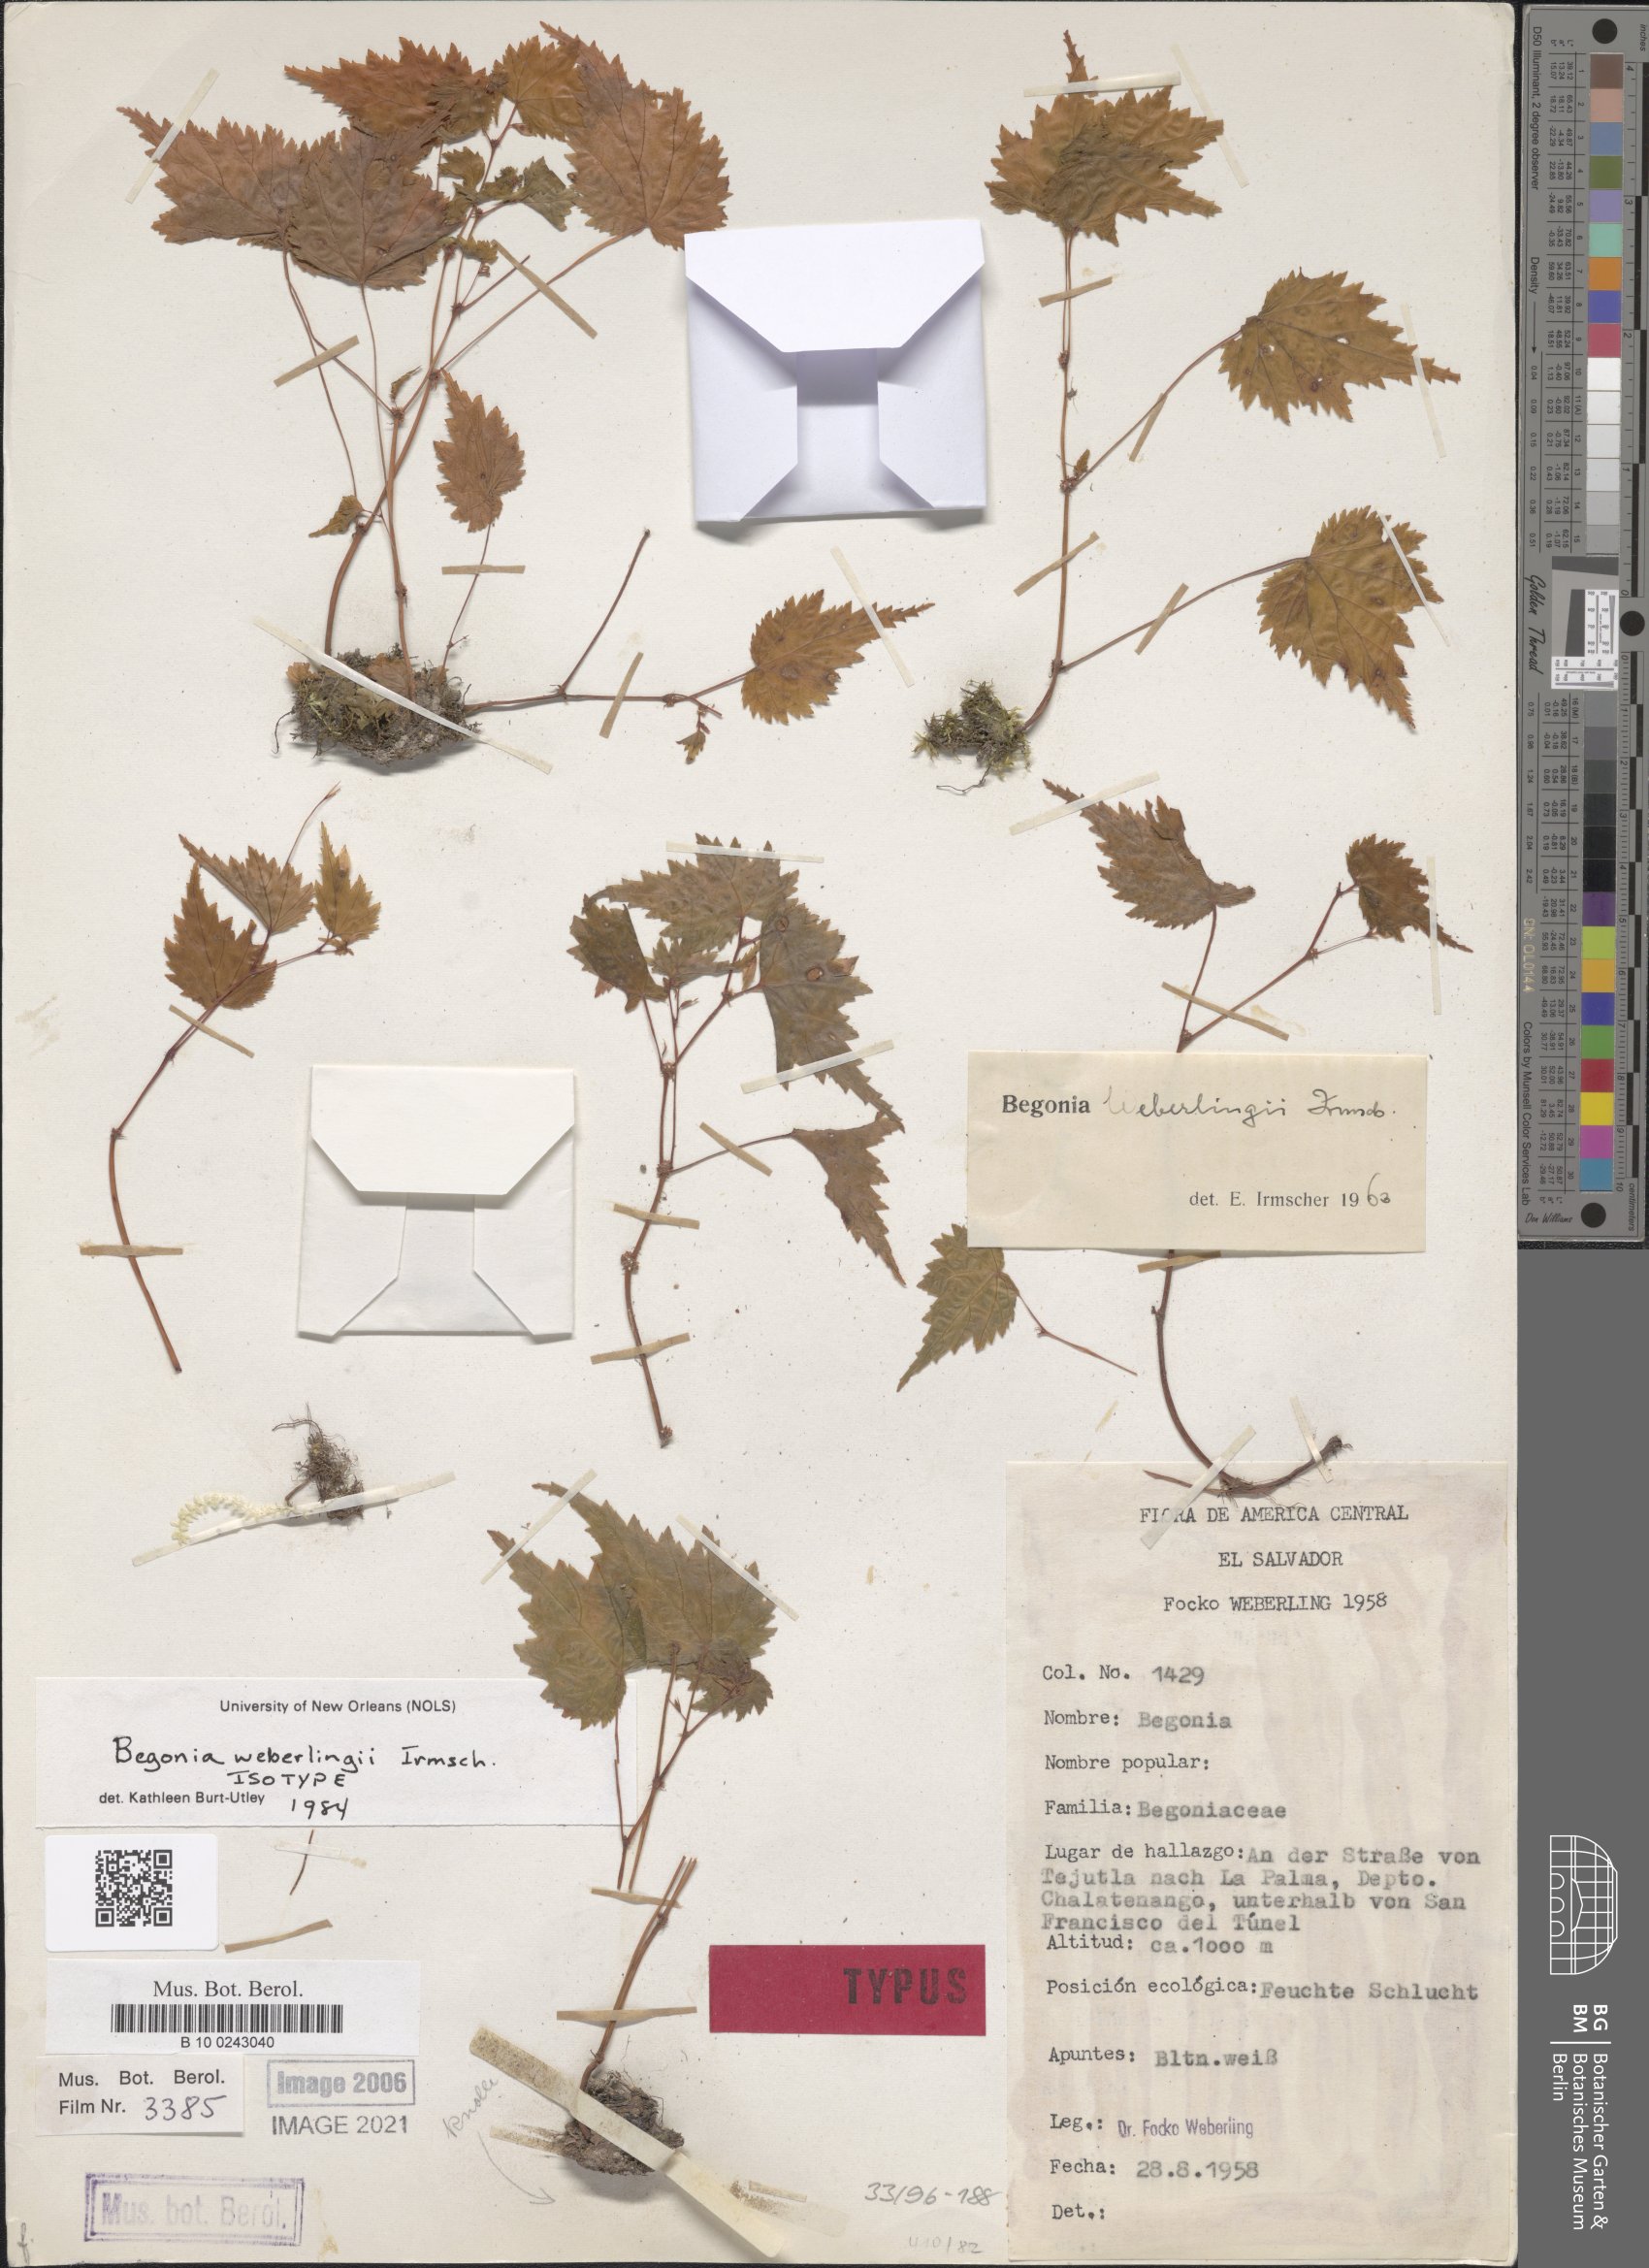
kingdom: Plantae
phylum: Tracheophyta
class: Magnoliopsida
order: Cucurbitales
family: Begoniaceae
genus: Begonia
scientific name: Begonia weberlingii
